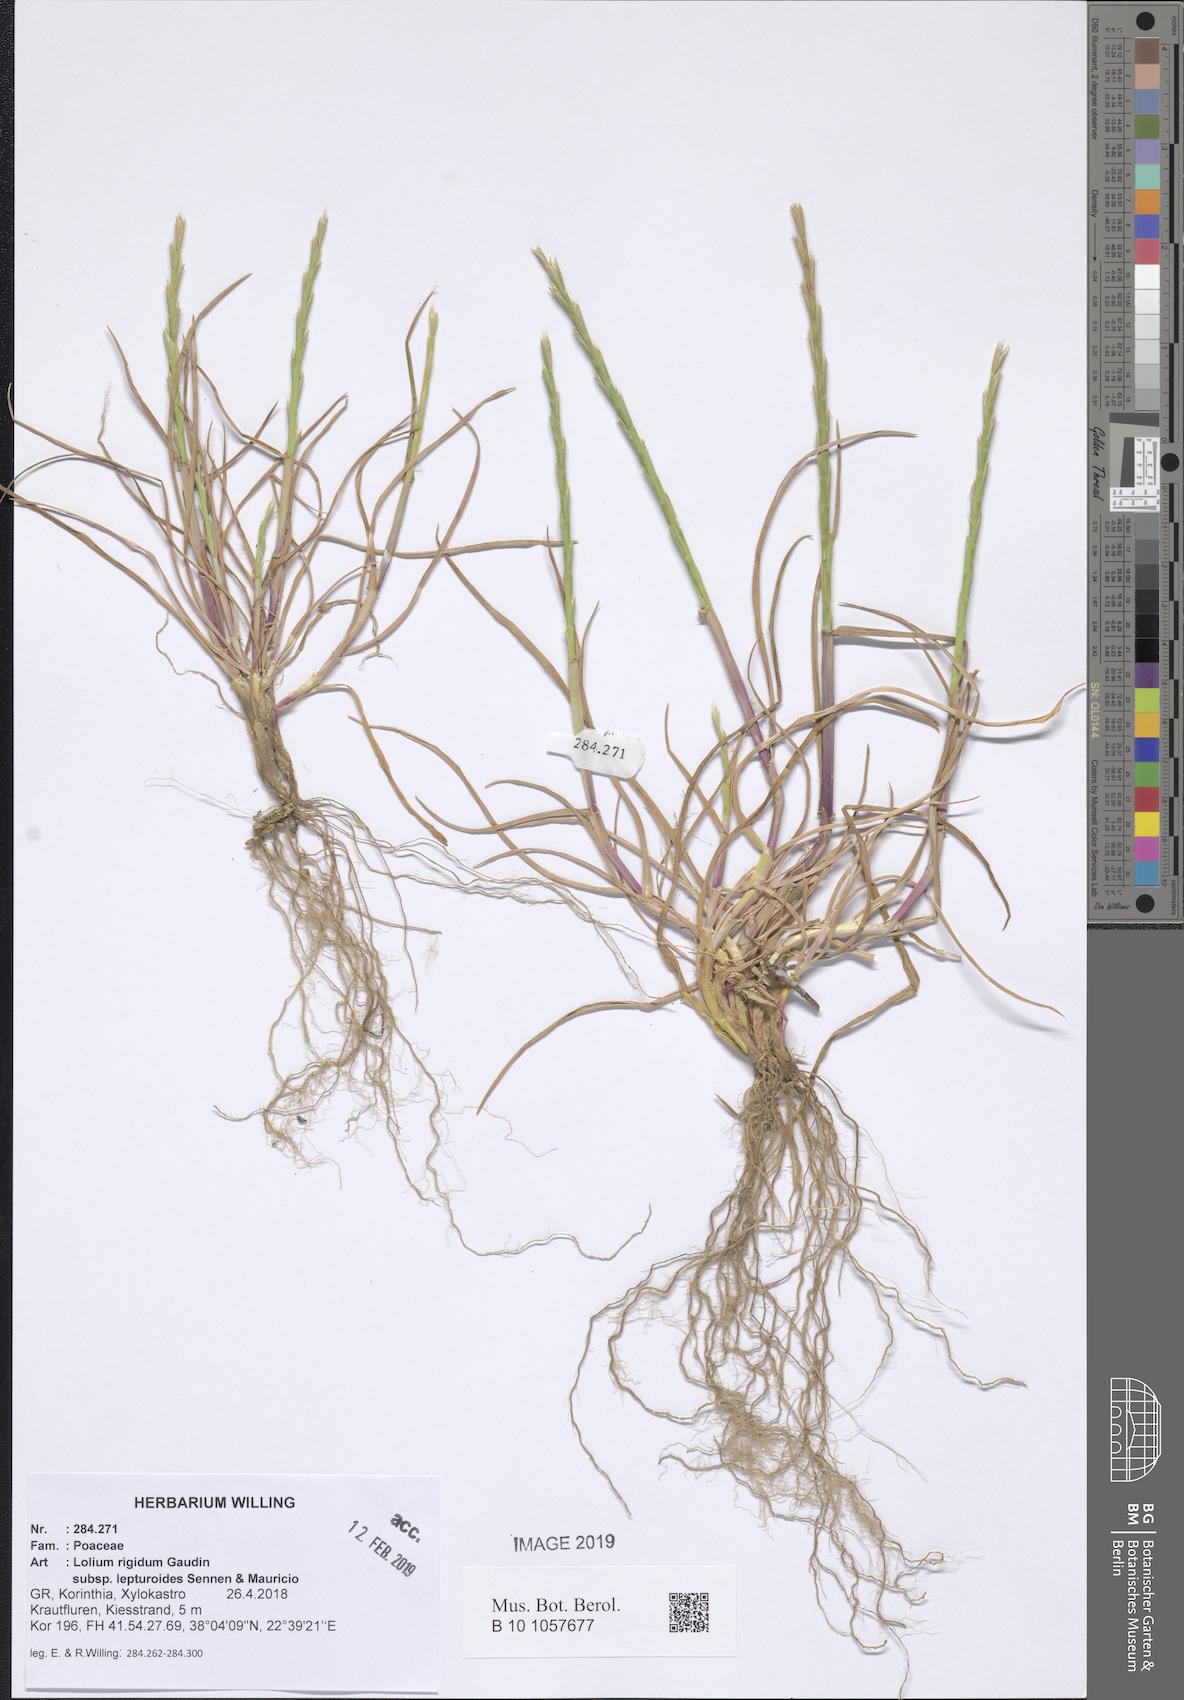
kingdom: Plantae
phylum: Tracheophyta
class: Liliopsida
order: Poales
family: Poaceae
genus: Lolium
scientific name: Lolium rigidum
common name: Wimmera ryegrass
